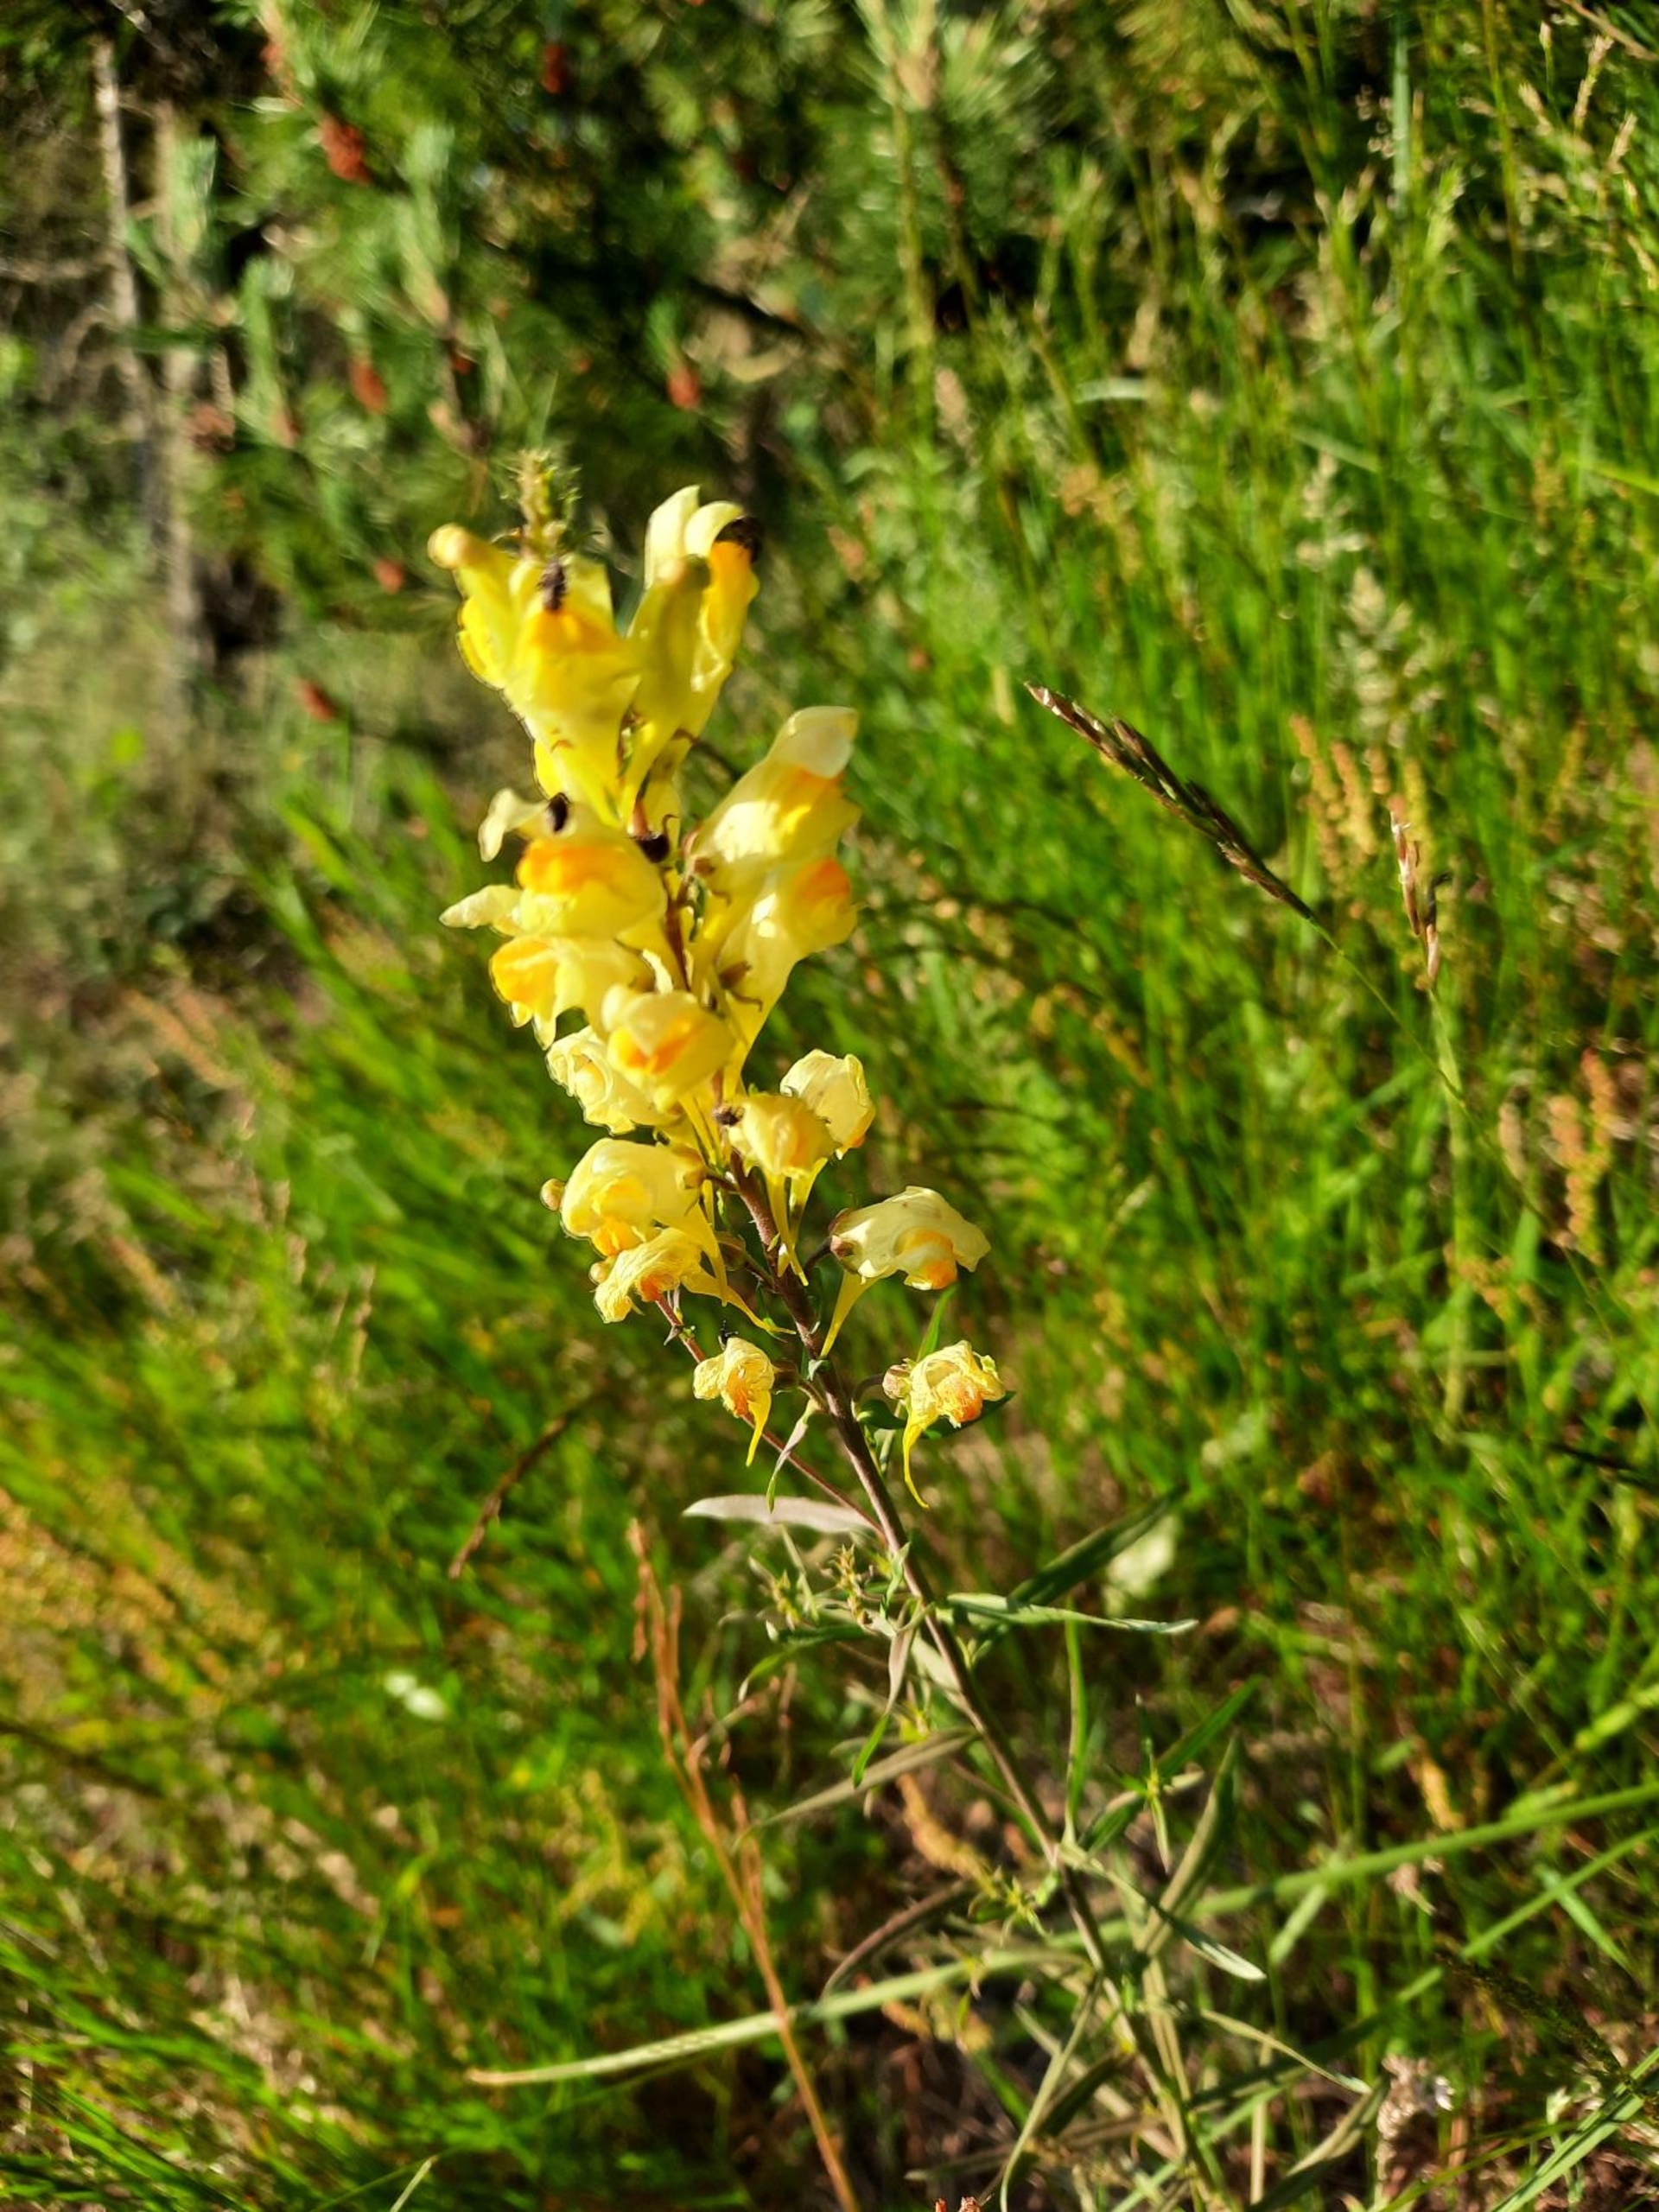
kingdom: Plantae
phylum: Tracheophyta
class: Magnoliopsida
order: Lamiales
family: Plantaginaceae
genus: Linaria
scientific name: Linaria vulgaris
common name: Almindelig torskemund
